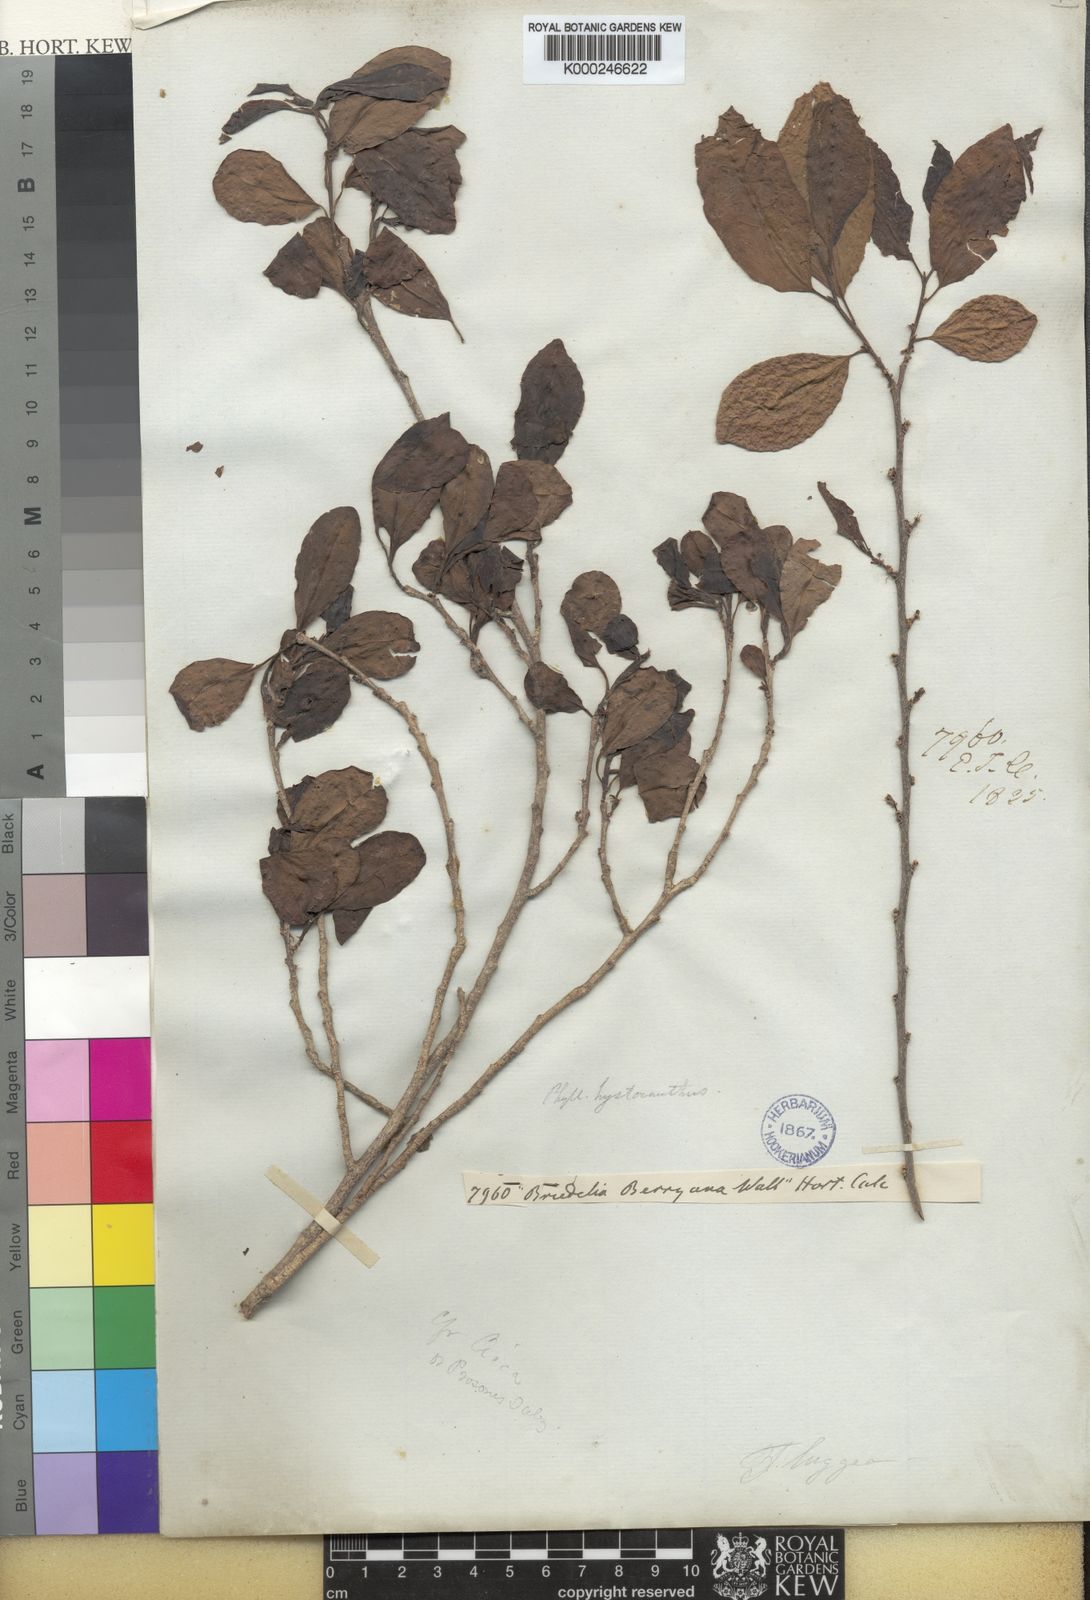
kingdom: Plantae
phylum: Tracheophyta
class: Magnoliopsida
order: Malpighiales
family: Phyllanthaceae
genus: Margaritaria
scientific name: Margaritaria indica
